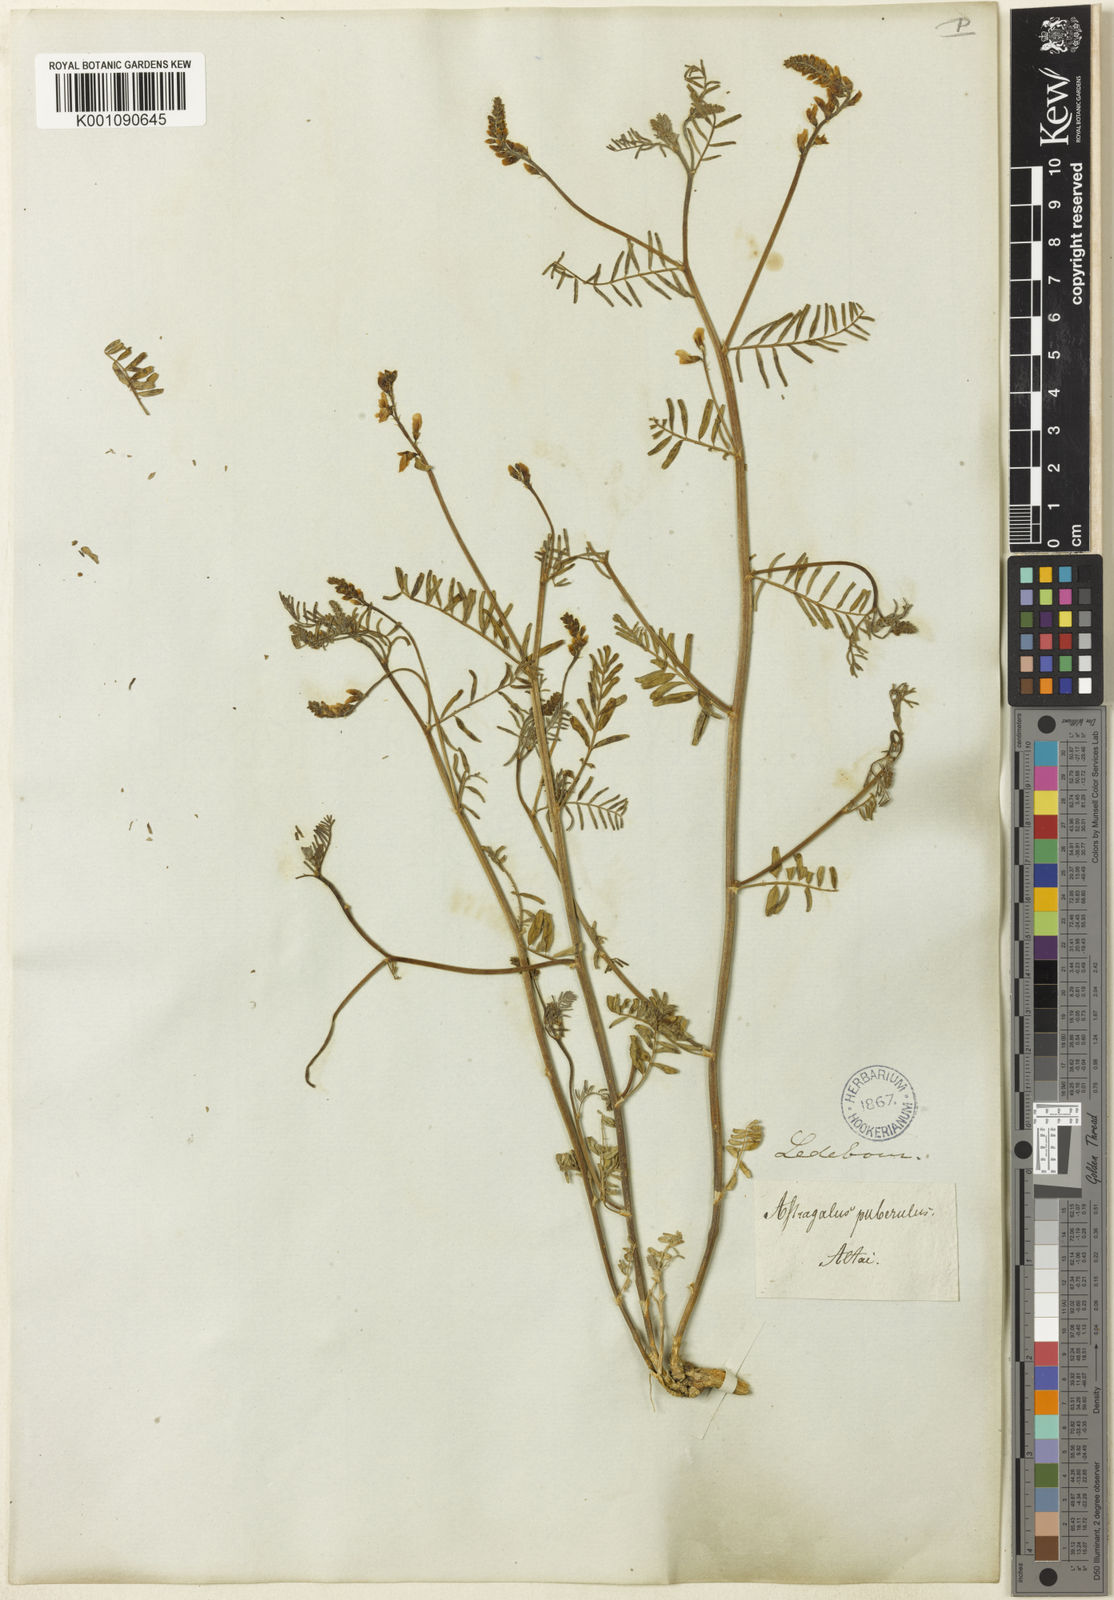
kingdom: Plantae
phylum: Tracheophyta
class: Magnoliopsida
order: Fabales
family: Fabaceae
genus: Astragalus
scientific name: Astragalus
